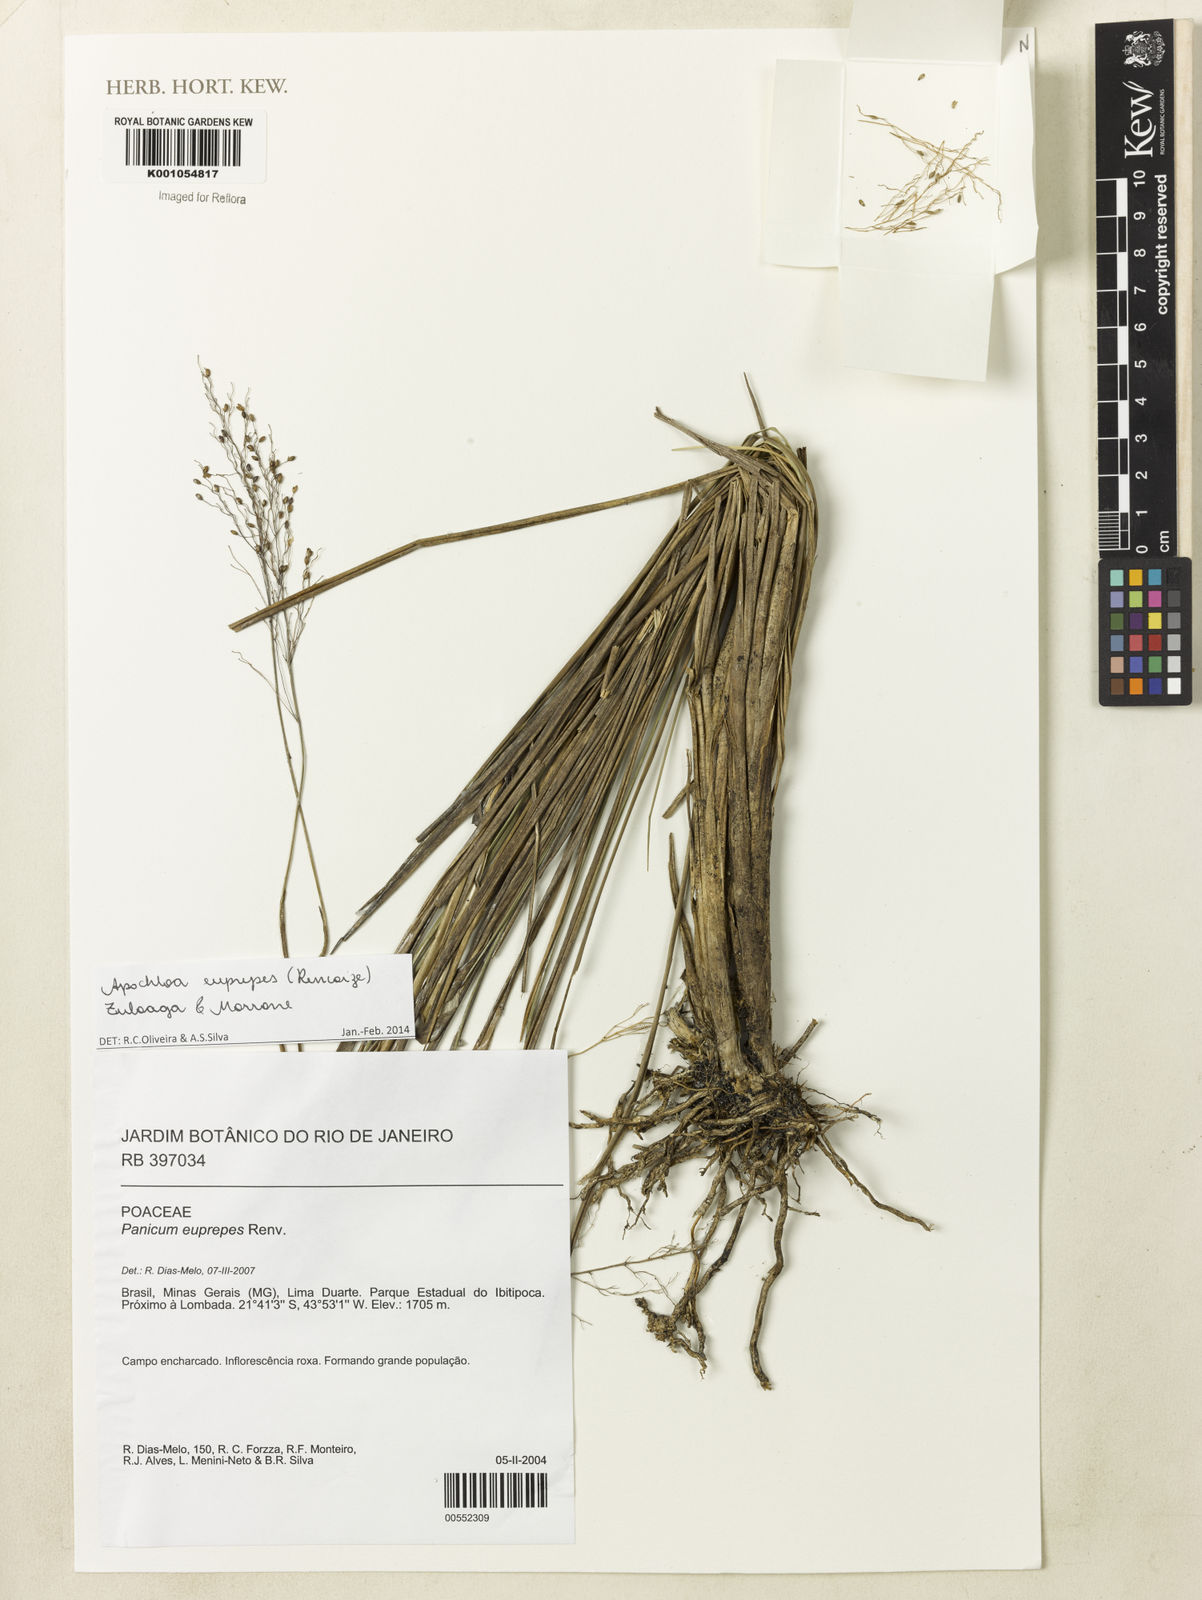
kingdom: Plantae
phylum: Tracheophyta
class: Liliopsida
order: Poales
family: Poaceae
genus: Apochloa
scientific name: Apochloa euprepes
